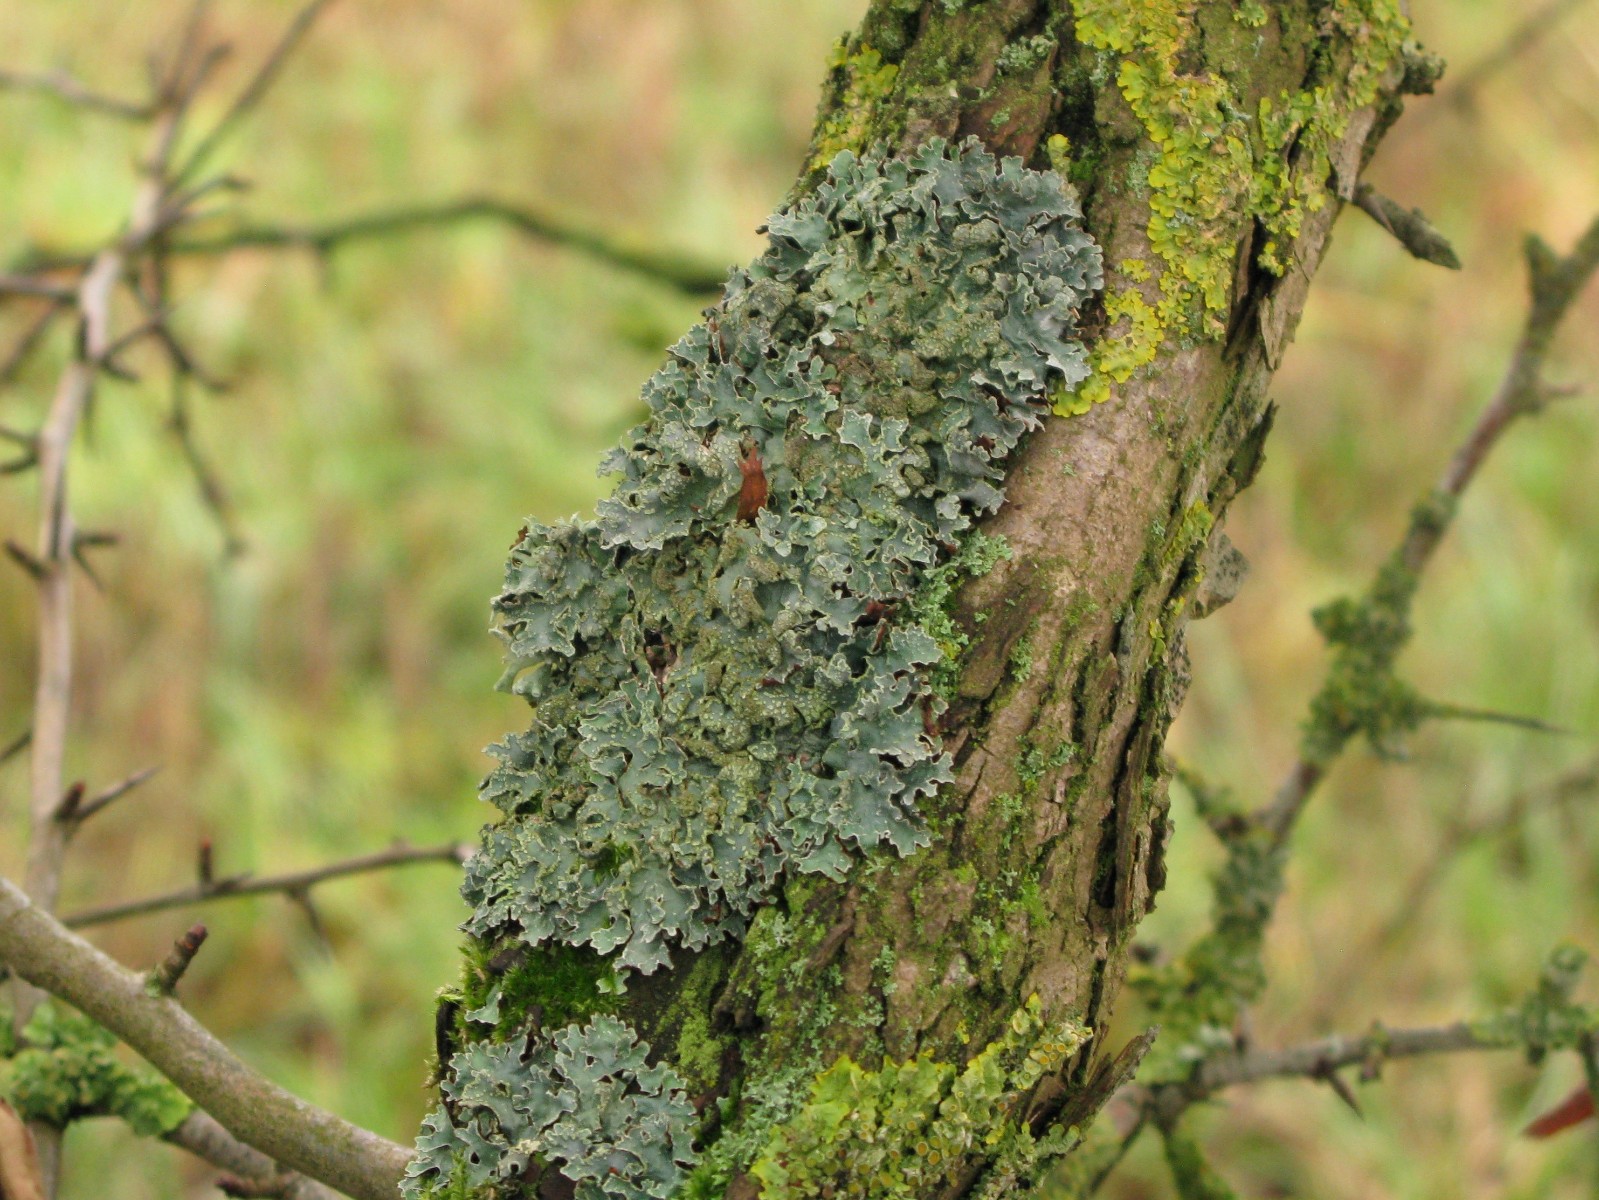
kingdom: Fungi
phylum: Ascomycota
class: Lecanoromycetes
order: Lecanorales
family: Parmeliaceae
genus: Parmelia
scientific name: Parmelia sulcata
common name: rynket skållav
